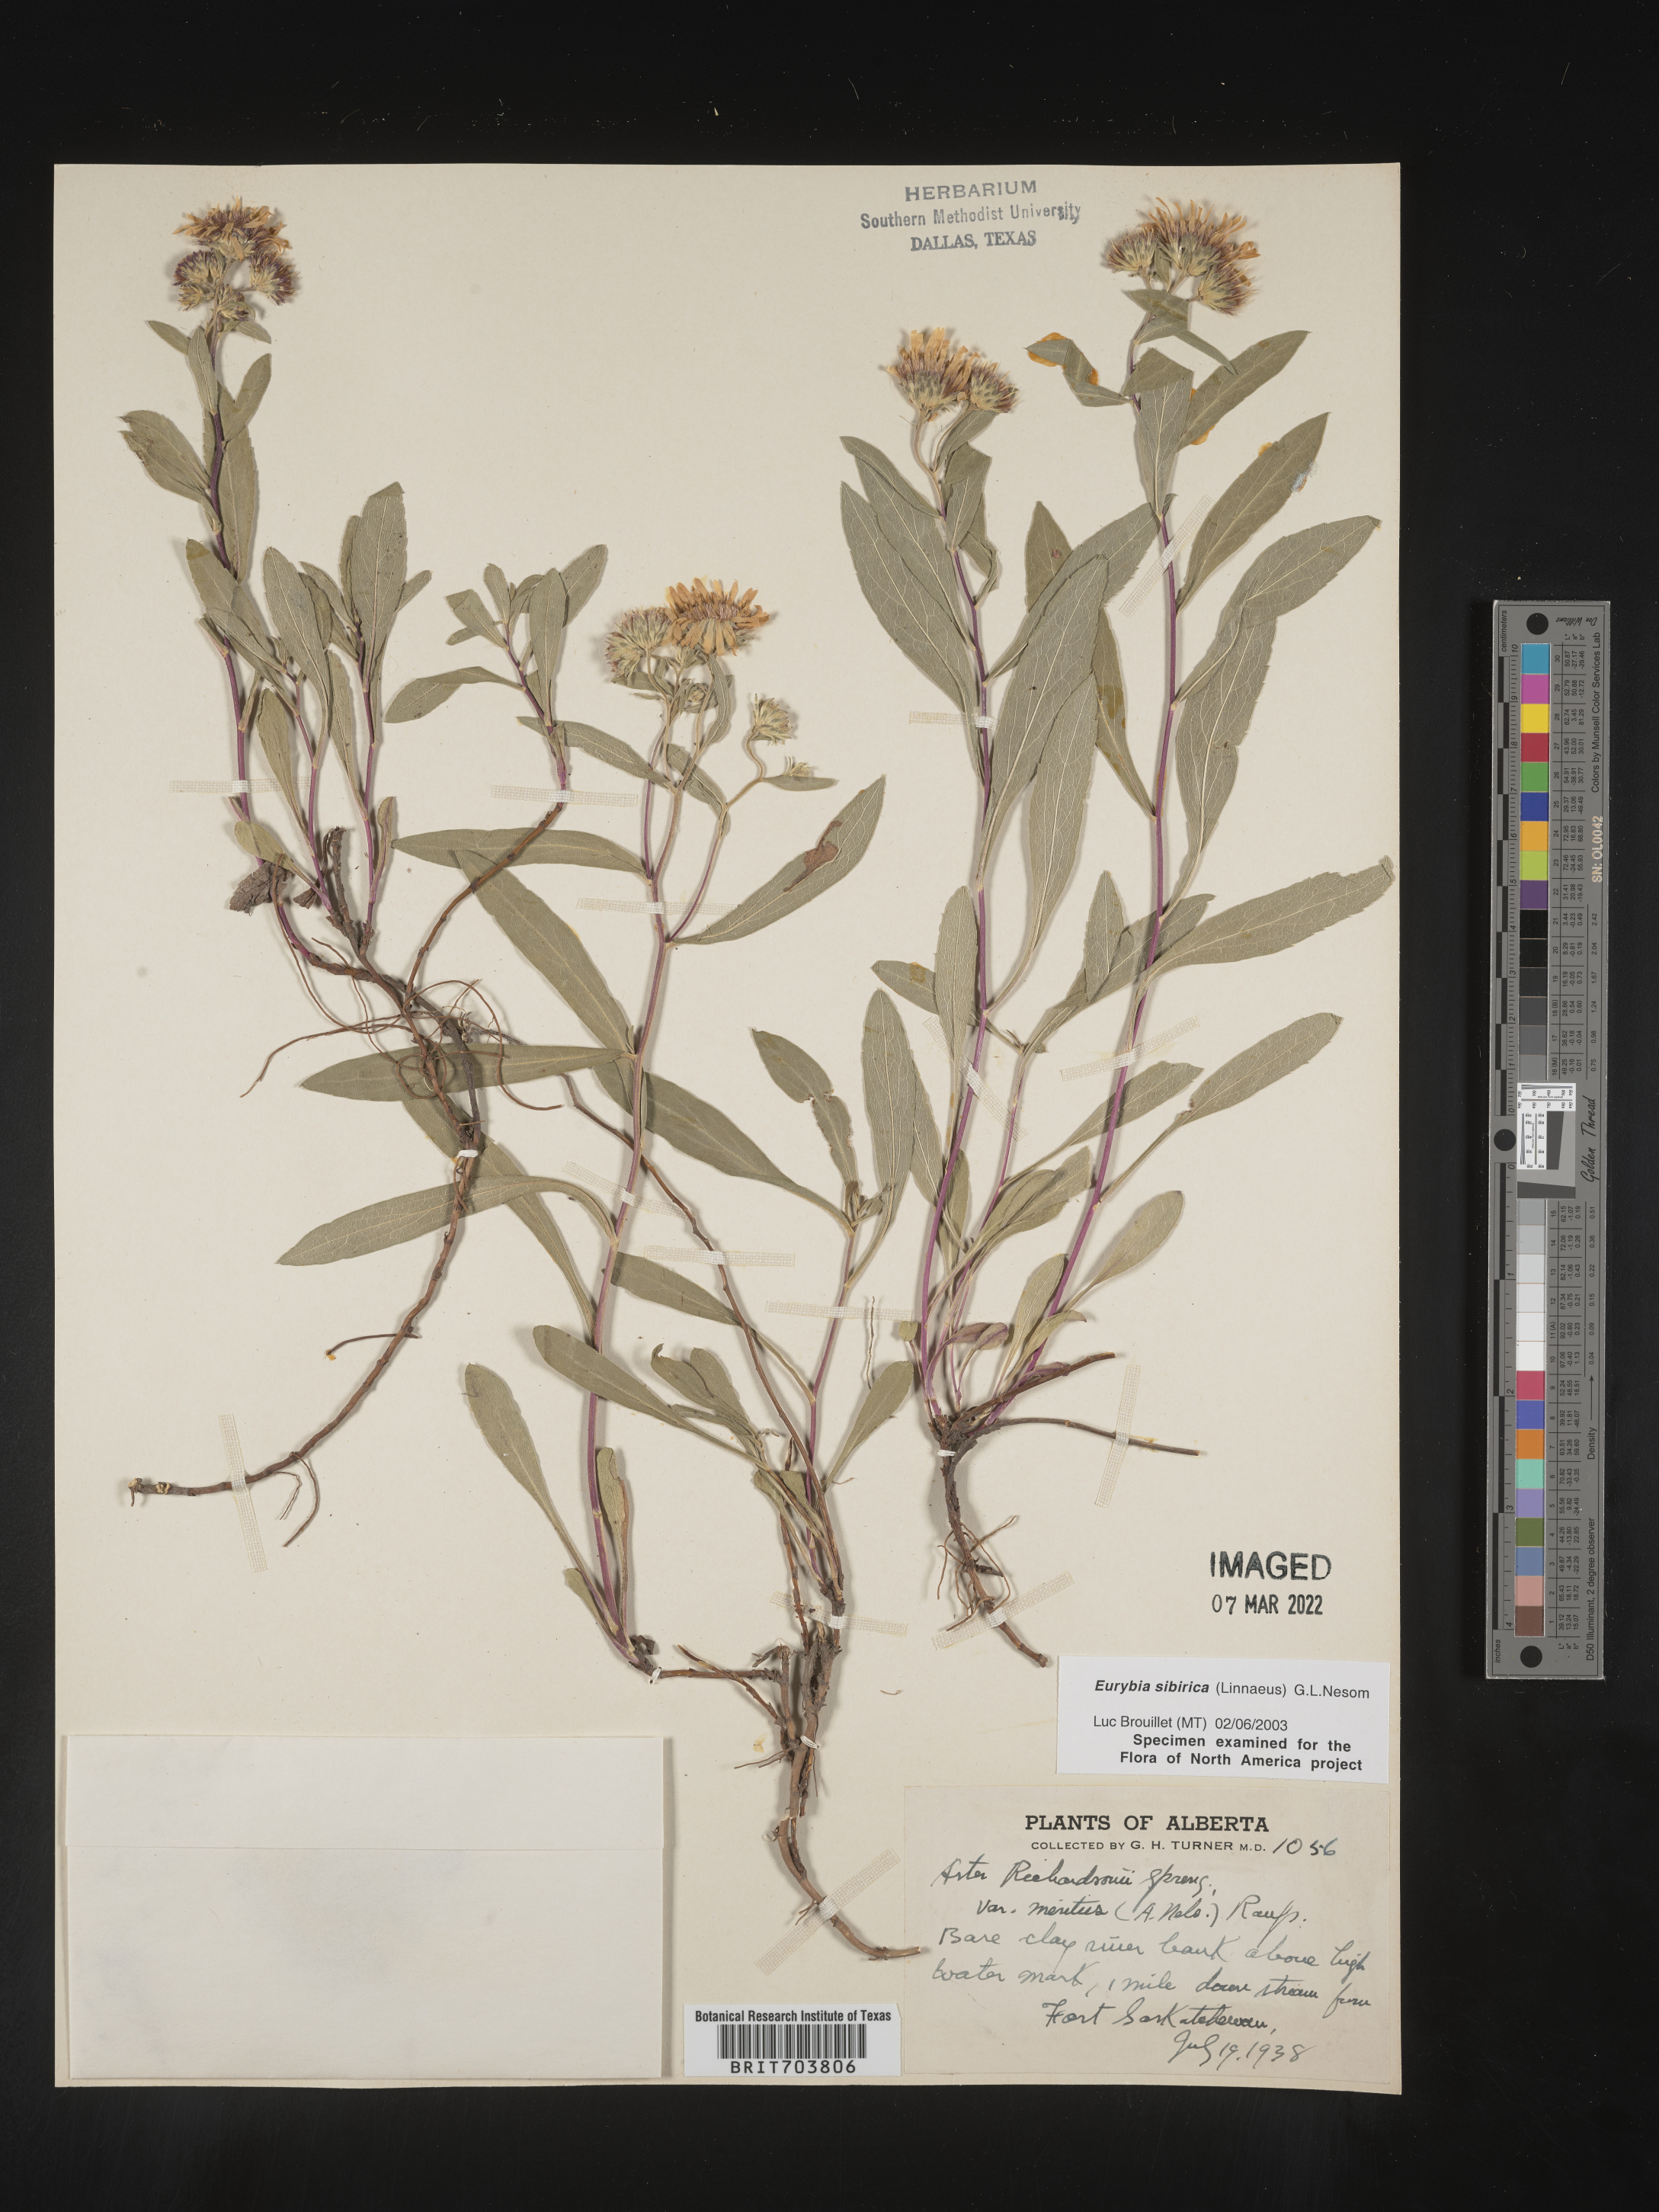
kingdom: Plantae
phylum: Tracheophyta
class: Magnoliopsida
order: Asterales
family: Asteraceae
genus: Eurybia
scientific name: Eurybia sibirica
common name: Arctic aster
